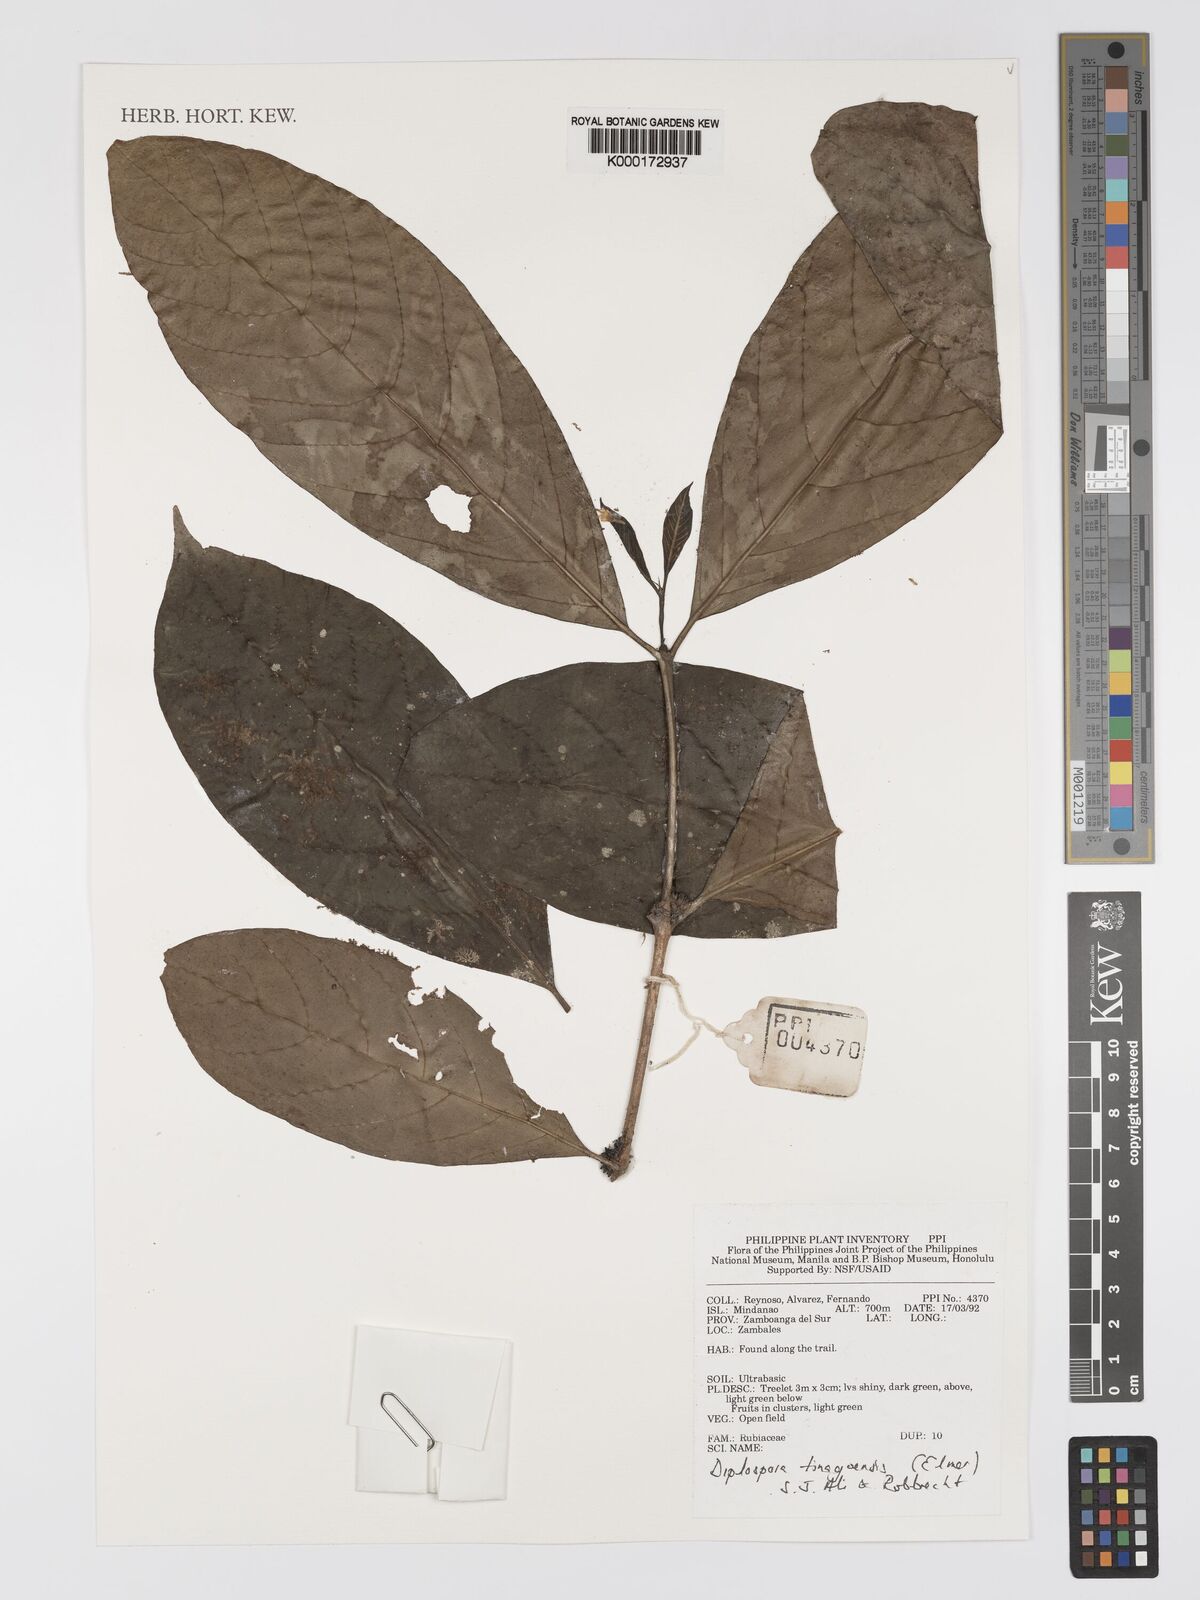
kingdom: Plantae
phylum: Tracheophyta
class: Magnoliopsida
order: Gentianales
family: Rubiaceae
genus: Diplospora
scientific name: Diplospora tinagoensis
